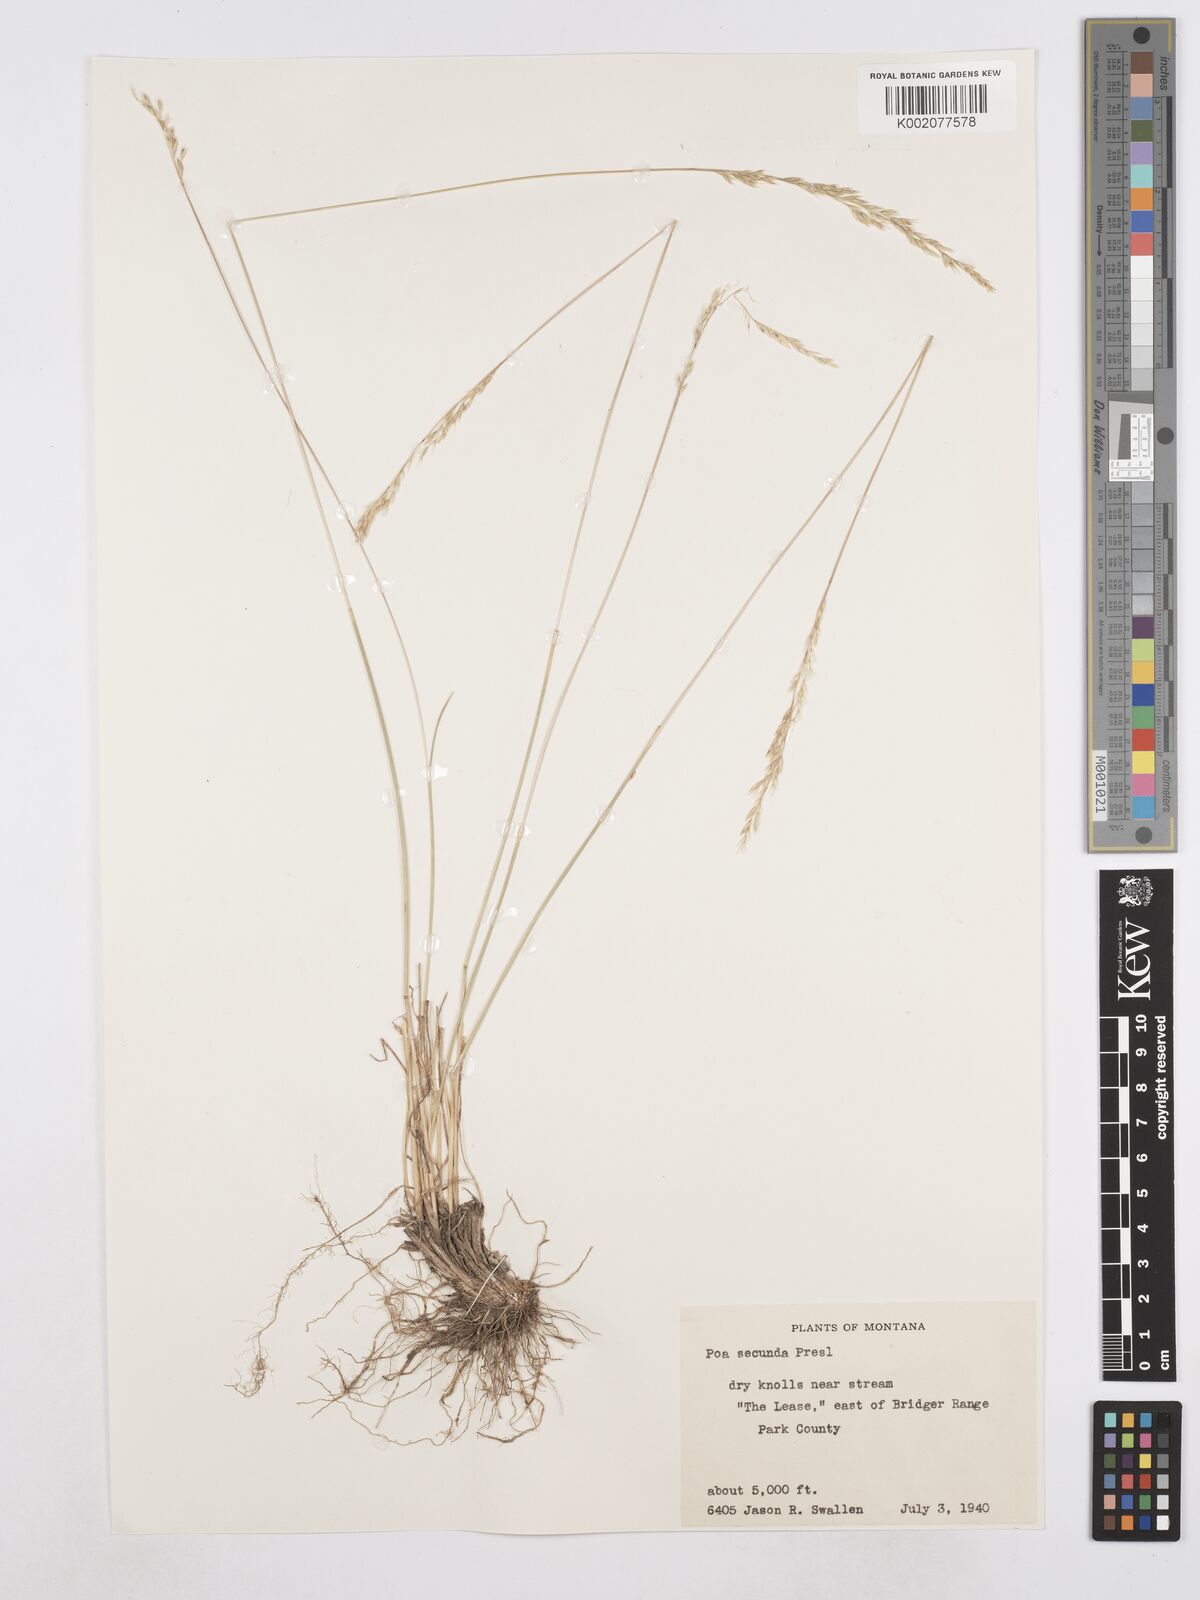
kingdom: Plantae
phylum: Tracheophyta
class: Liliopsida
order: Poales
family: Poaceae
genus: Poa
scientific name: Poa secunda
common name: Sandberg bluegrass
